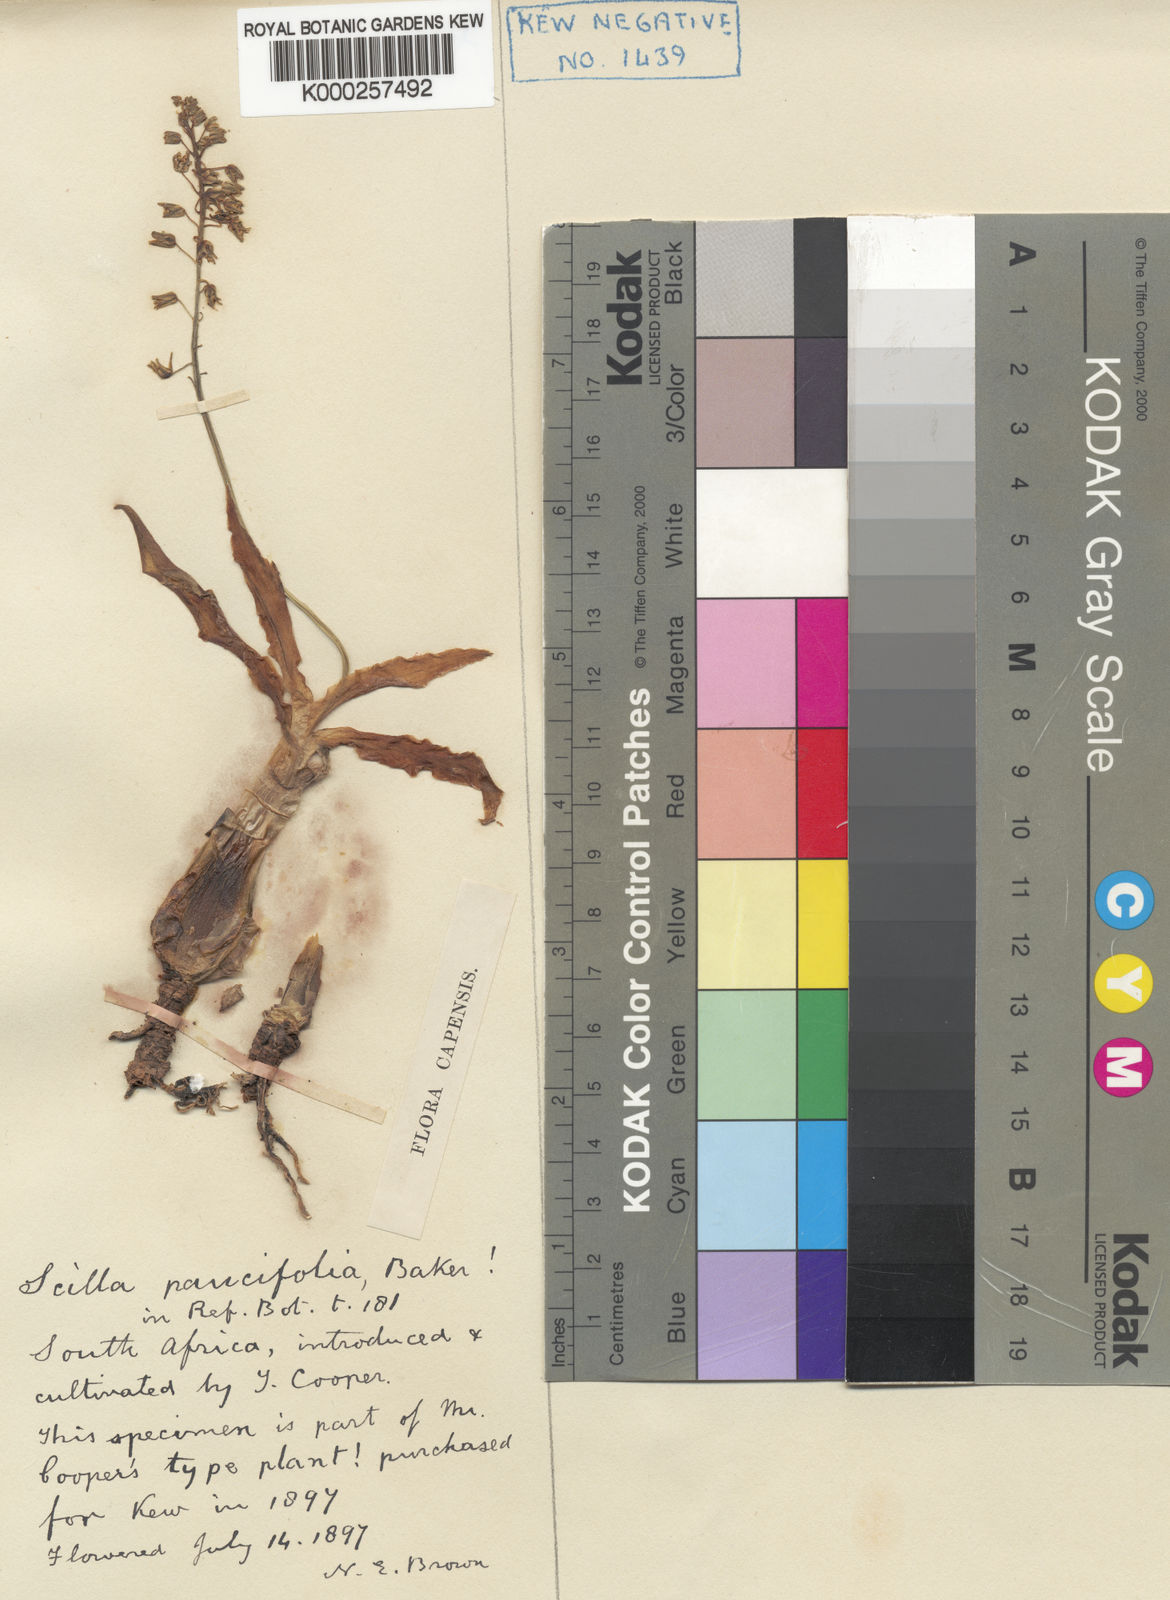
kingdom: Plantae
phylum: Tracheophyta
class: Liliopsida
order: Asparagales
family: Asparagaceae
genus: Ledebouria
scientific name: Ledebouria socialis
